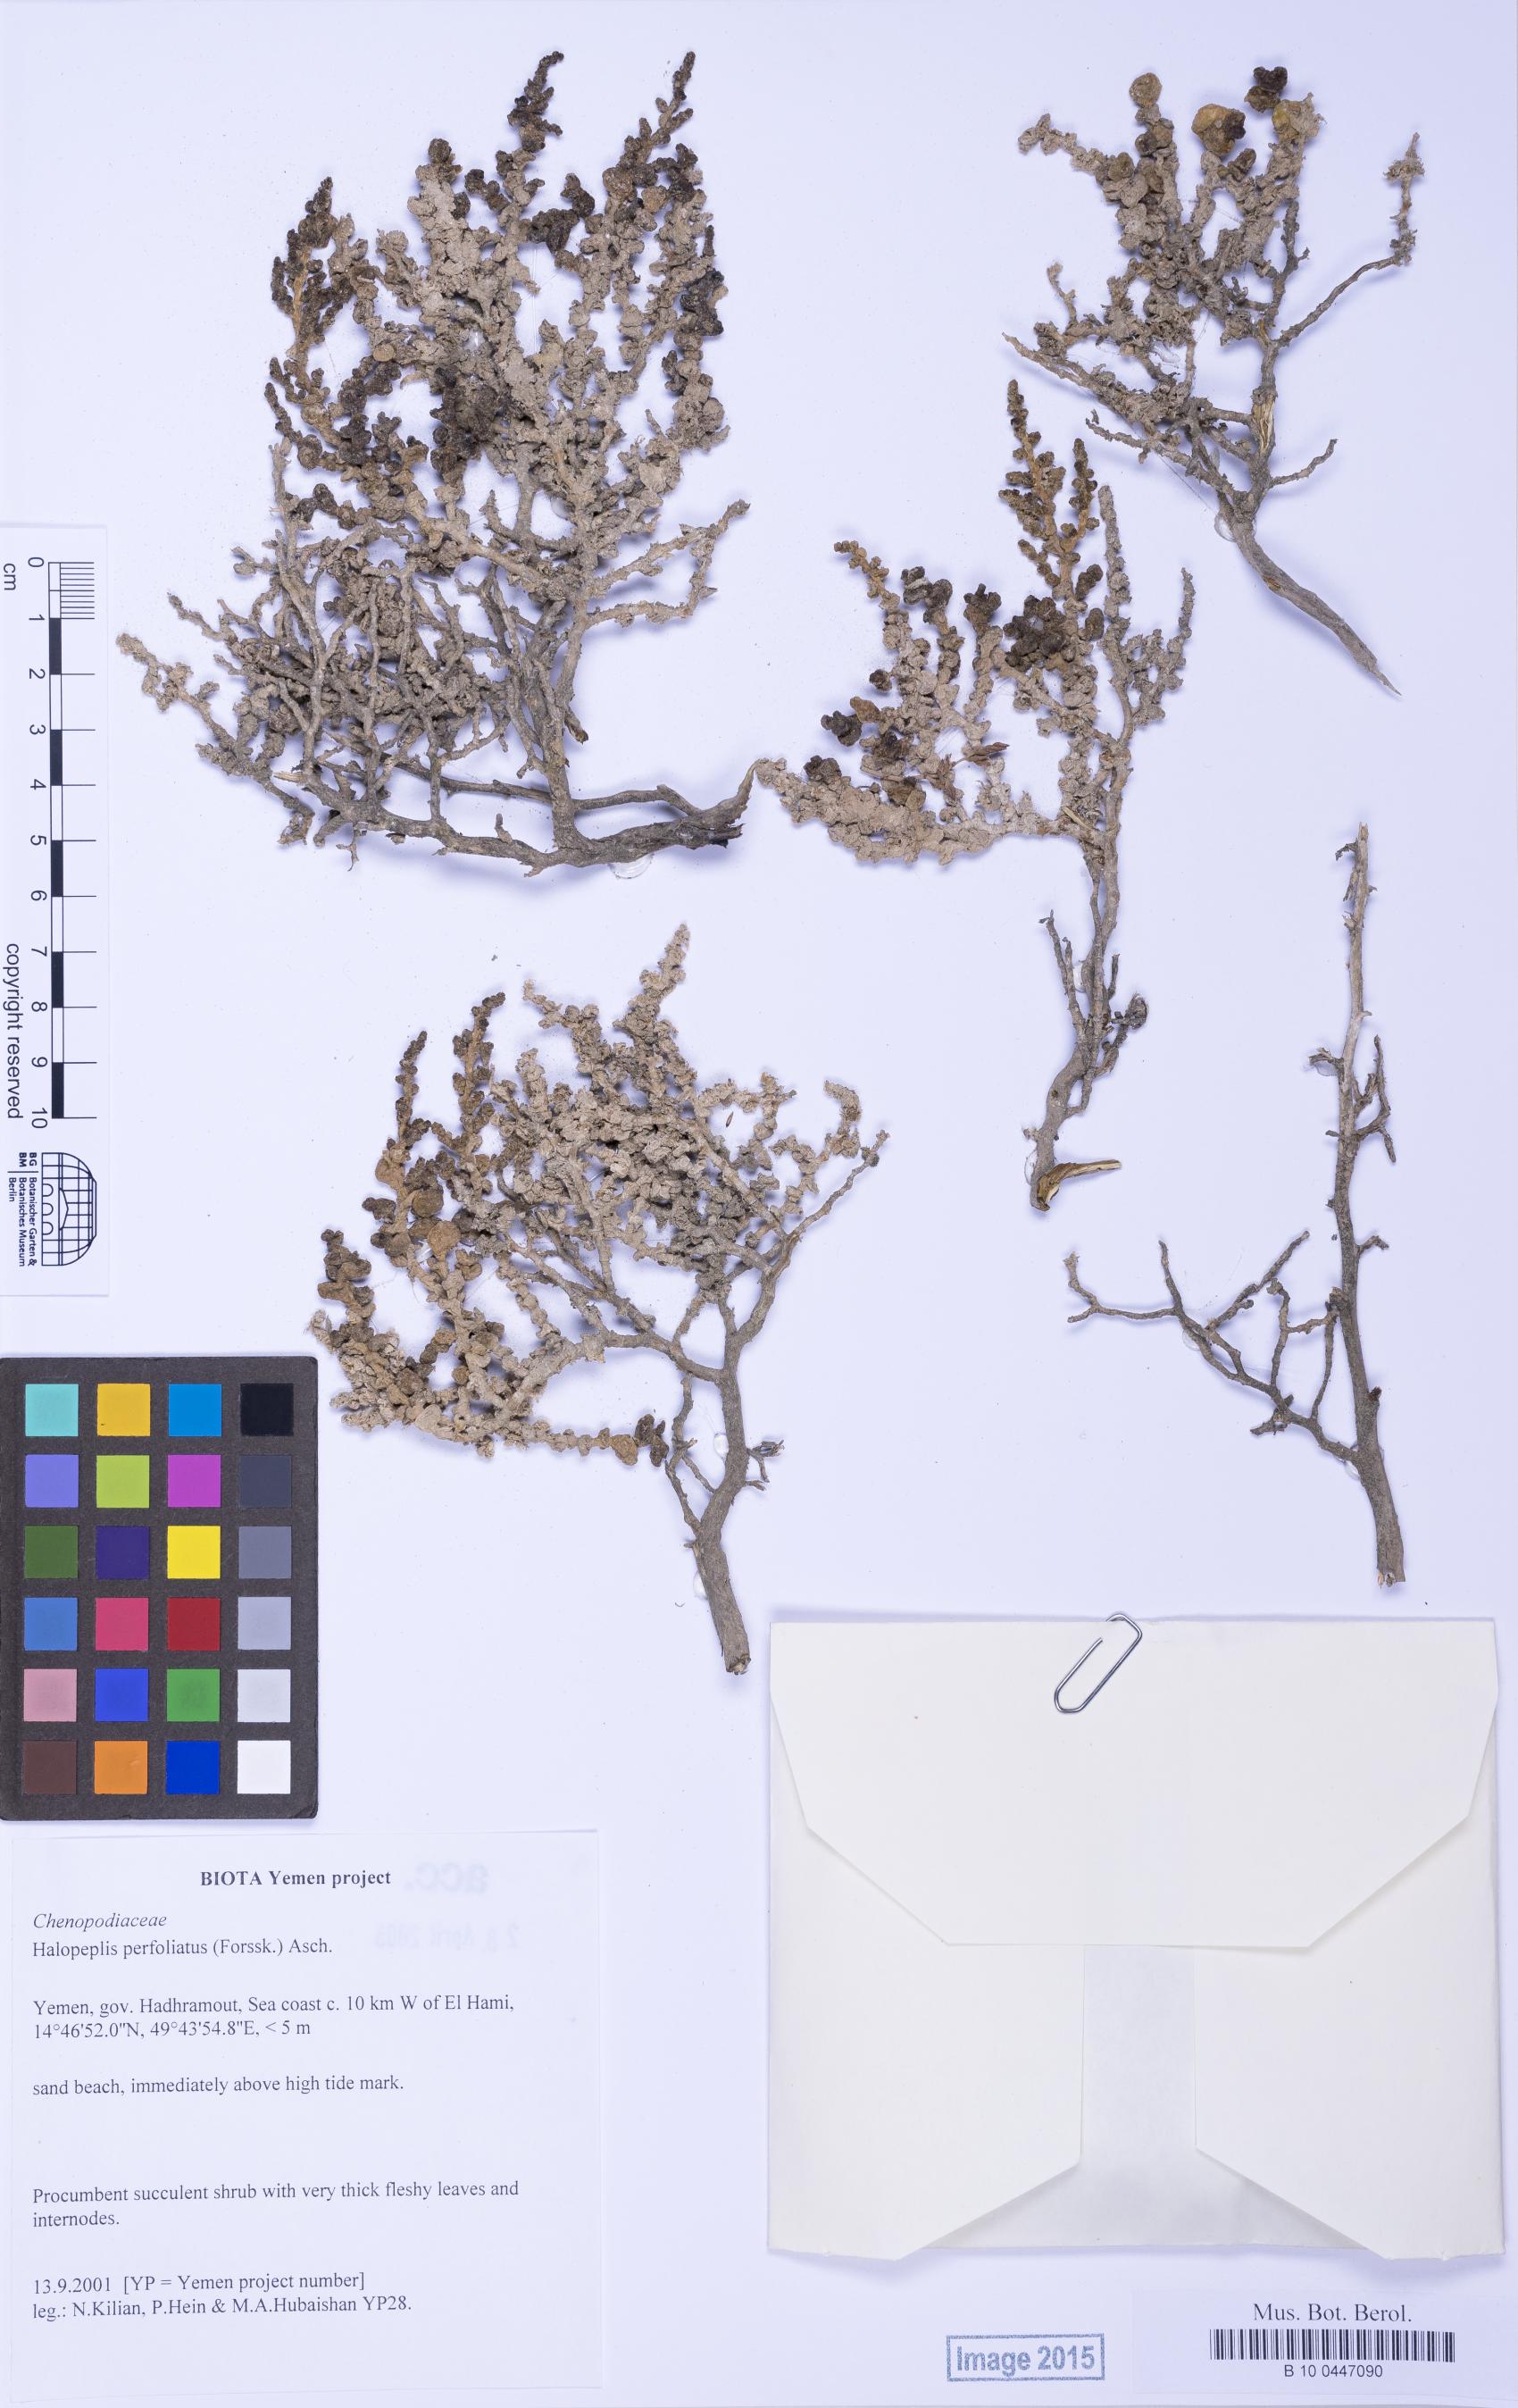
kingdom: Plantae
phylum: Tracheophyta
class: Magnoliopsida
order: Caryophyllales
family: Amaranthaceae
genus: Halopeplis
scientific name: Halopeplis perfoliata
